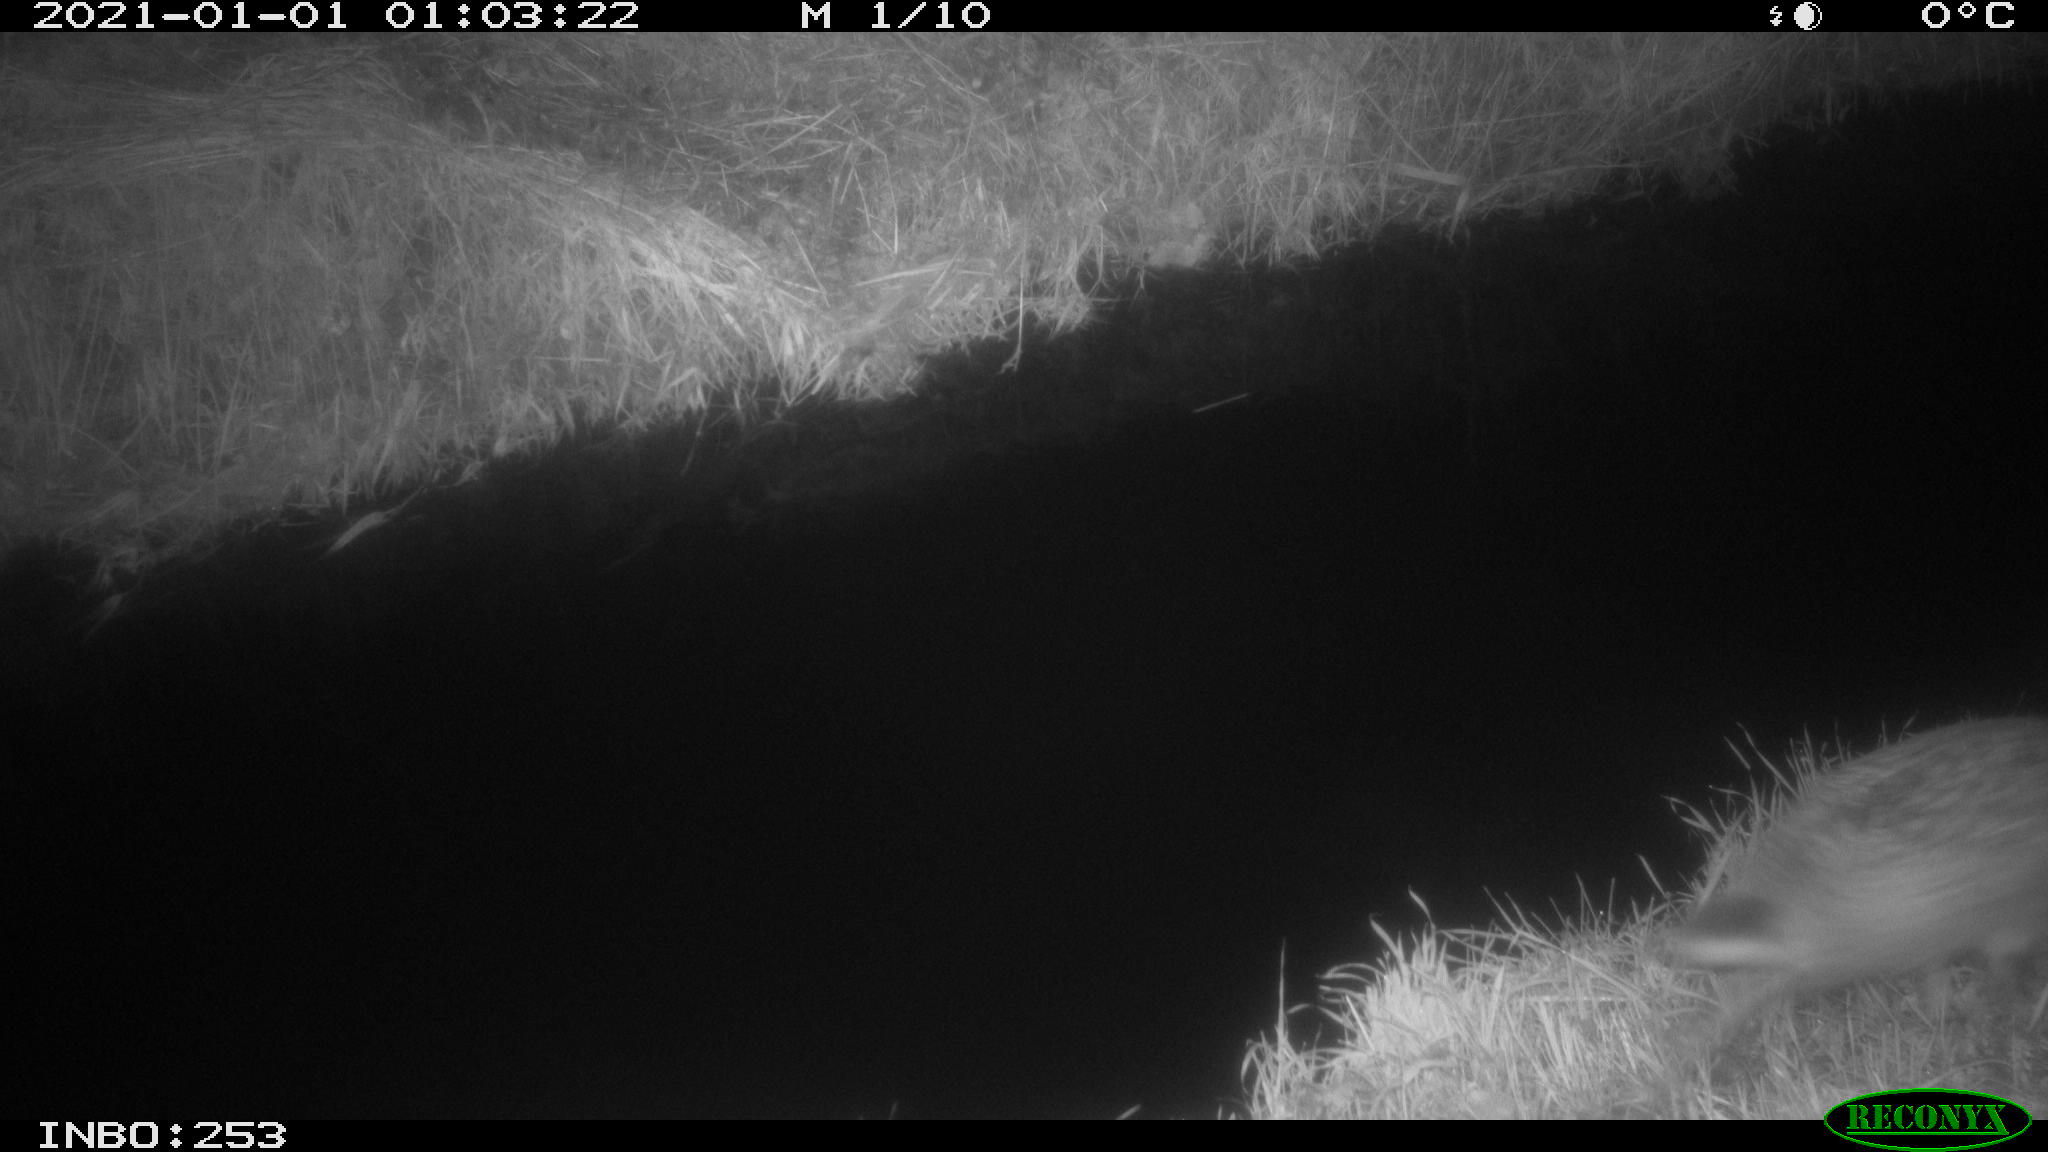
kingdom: Animalia
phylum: Chordata
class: Mammalia
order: Lagomorpha
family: Leporidae
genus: Lepus
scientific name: Lepus europaeus
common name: European hare
